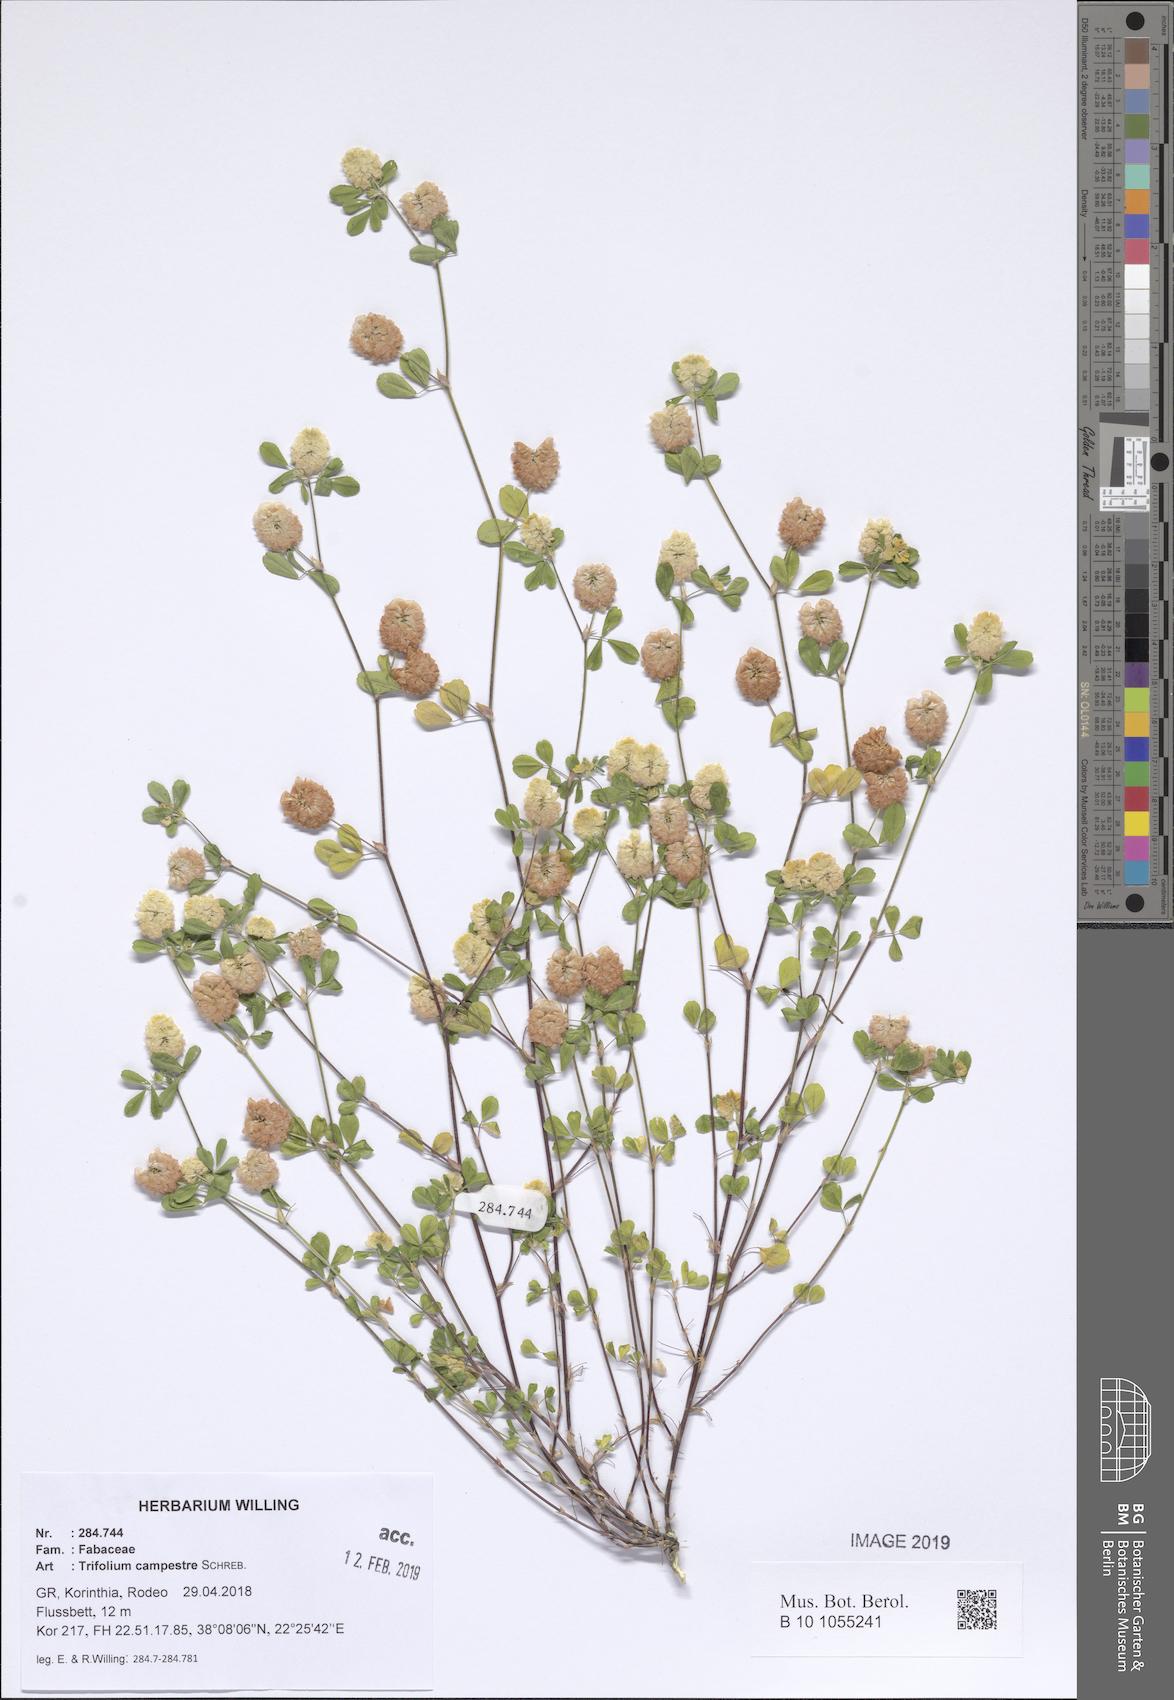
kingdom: Plantae
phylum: Tracheophyta
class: Magnoliopsida
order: Fabales
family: Fabaceae
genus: Trifolium
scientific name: Trifolium campestre
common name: Field clover
